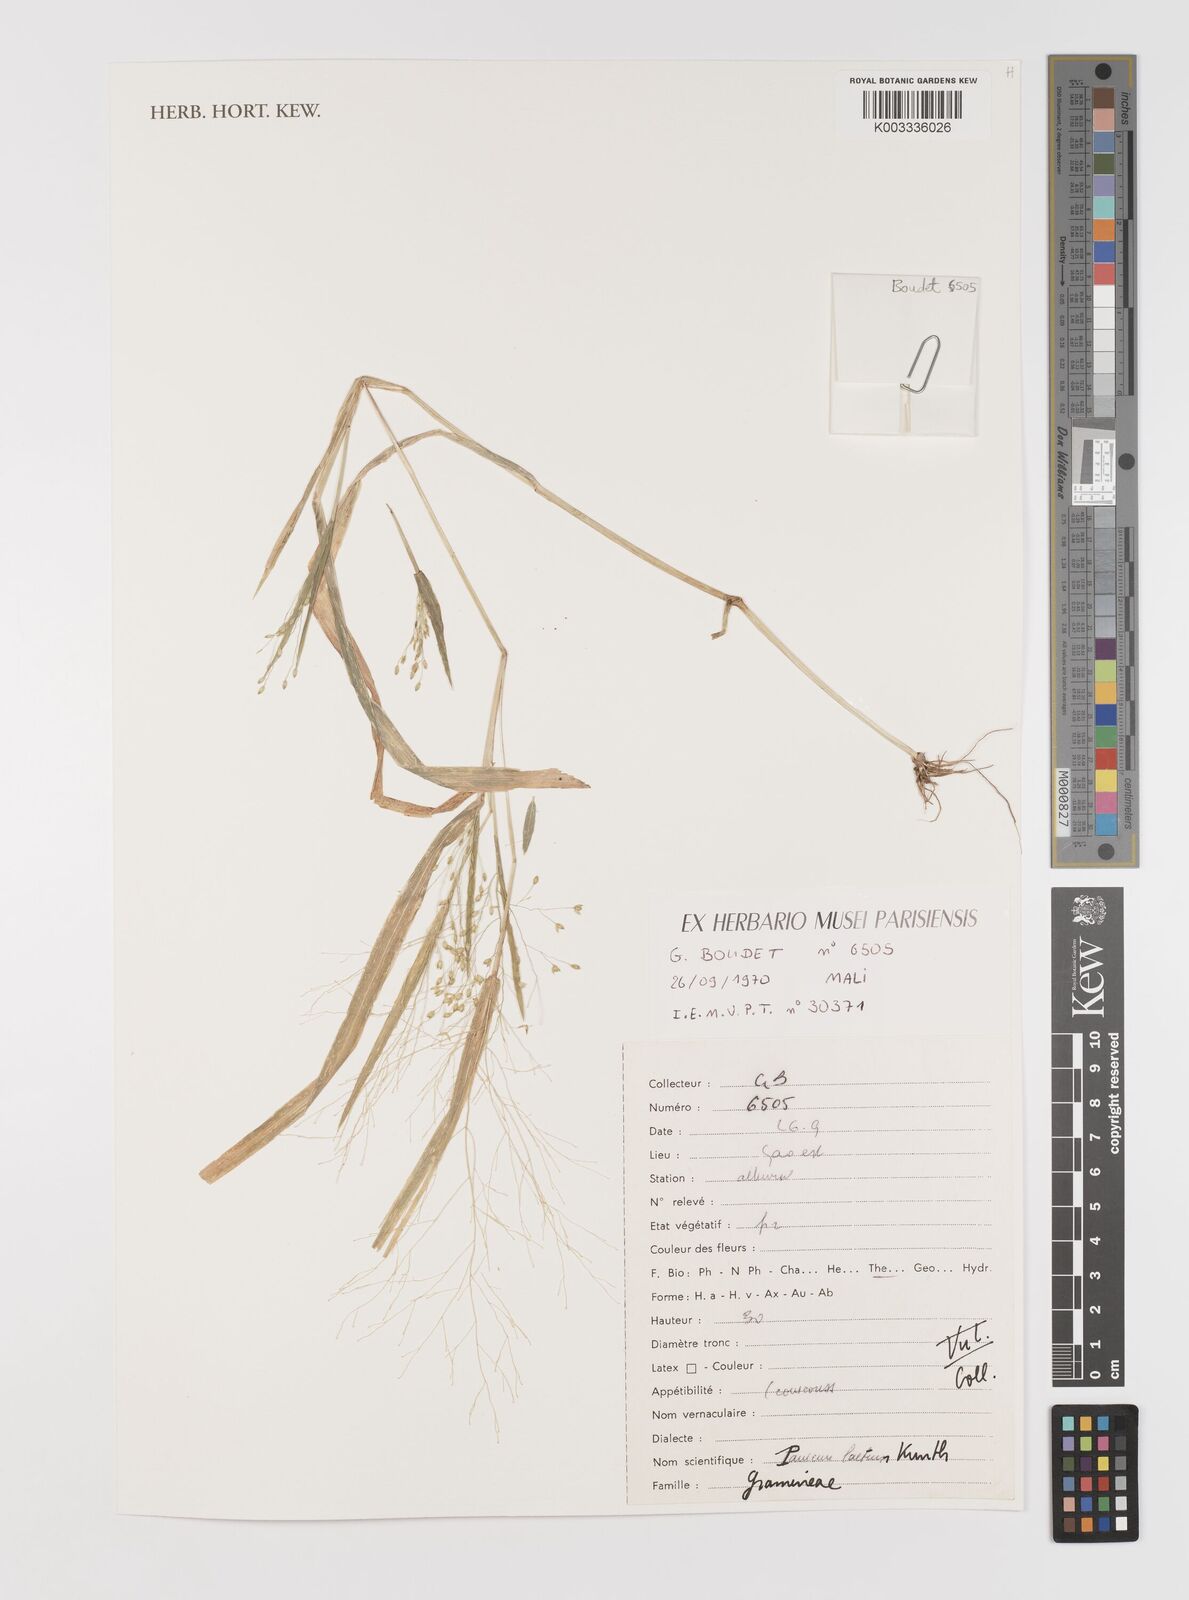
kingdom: Plantae
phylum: Tracheophyta
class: Liliopsida
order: Poales
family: Poaceae
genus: Panicum
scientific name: Panicum laetum
